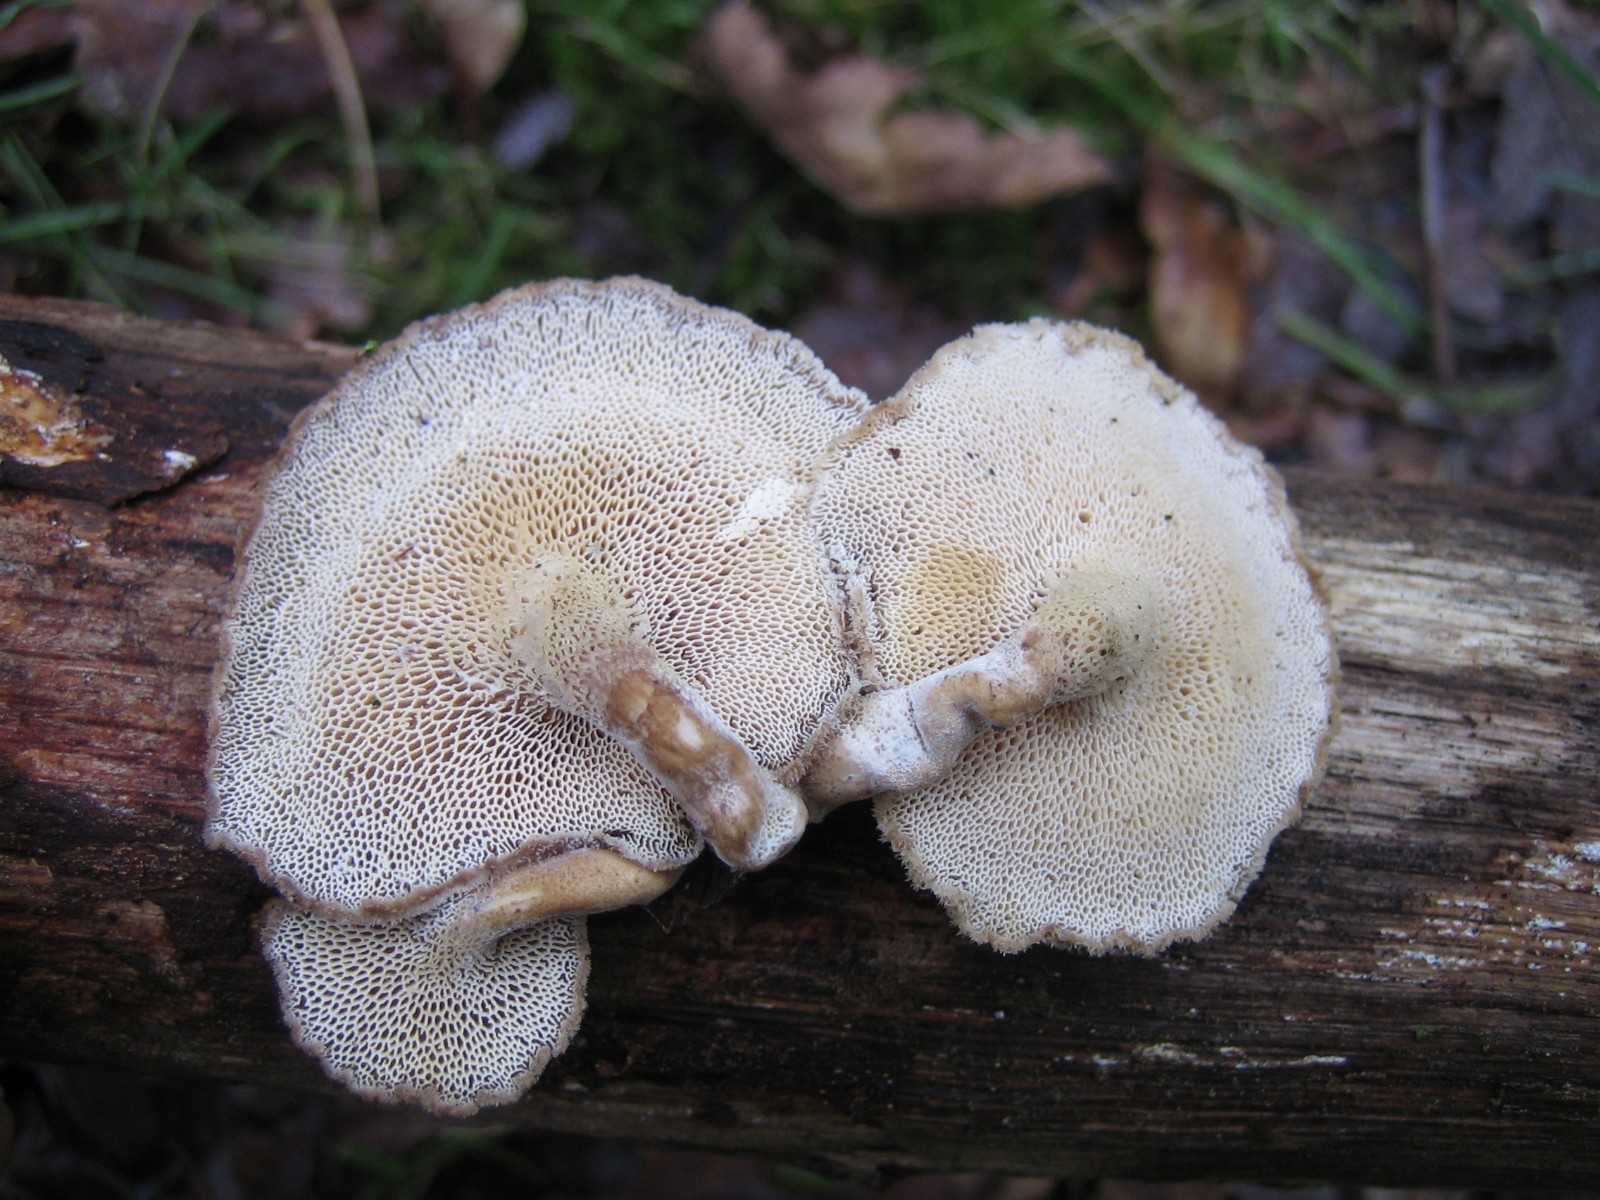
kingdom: Fungi
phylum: Basidiomycota
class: Agaricomycetes
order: Polyporales
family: Polyporaceae
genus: Lentinus
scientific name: Lentinus brumalis
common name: vinter-stilkporesvamp
